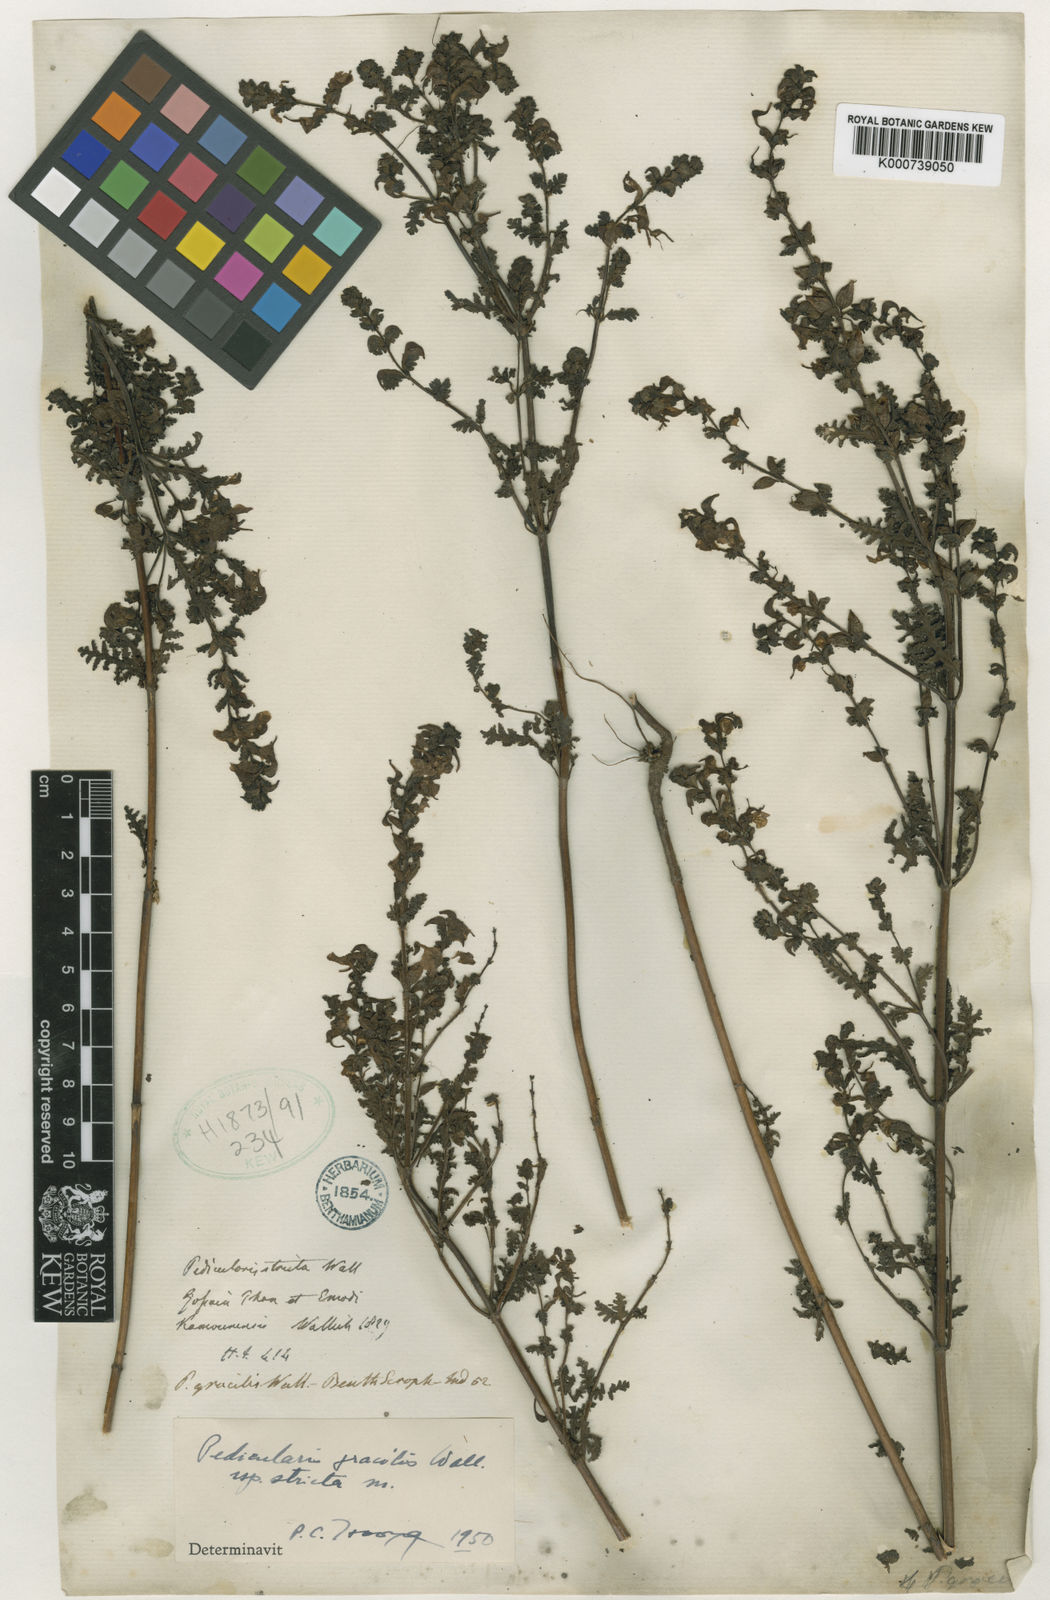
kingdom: Plantae
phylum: Tracheophyta
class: Magnoliopsida
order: Lamiales
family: Orobanchaceae
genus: Pedicularis
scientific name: Pedicularis gracilis
